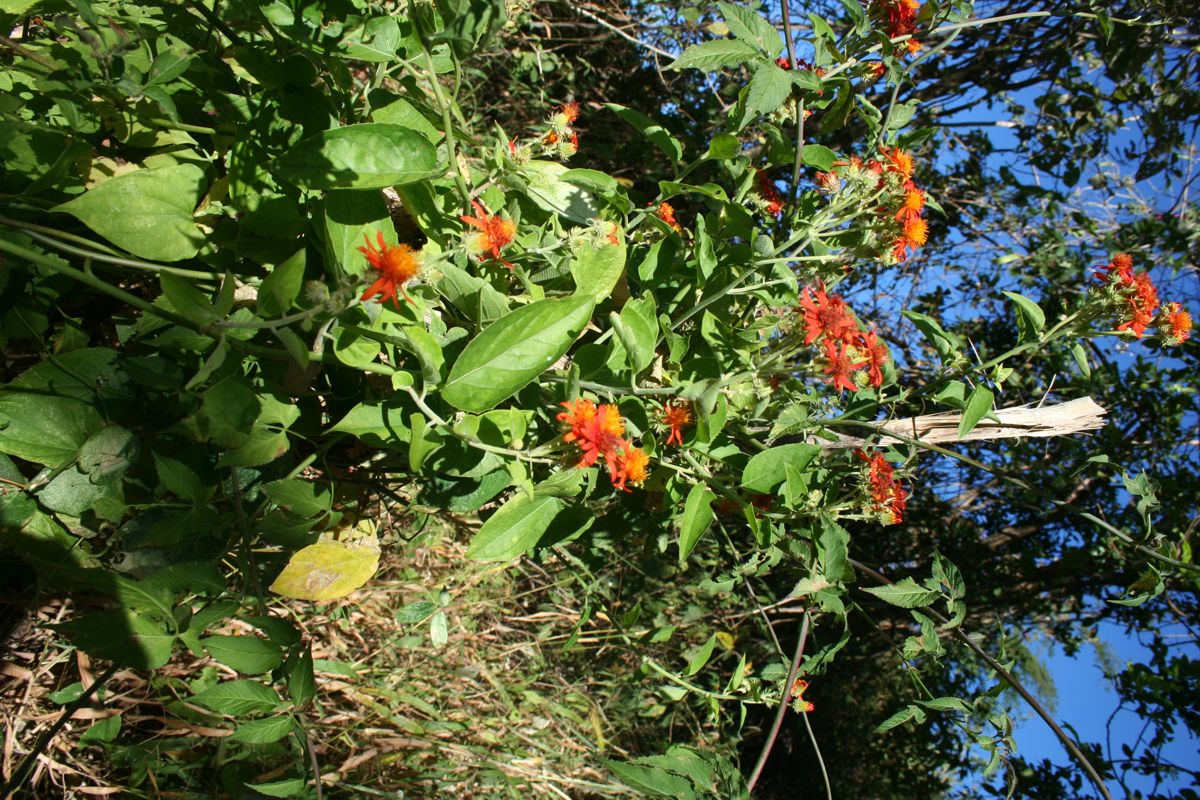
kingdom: Plantae
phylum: Tracheophyta
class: Magnoliopsida
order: Asterales
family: Asteraceae
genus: Pseudogynoxys
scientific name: Pseudogynoxys chenopodioides
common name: Mexican flamevine
